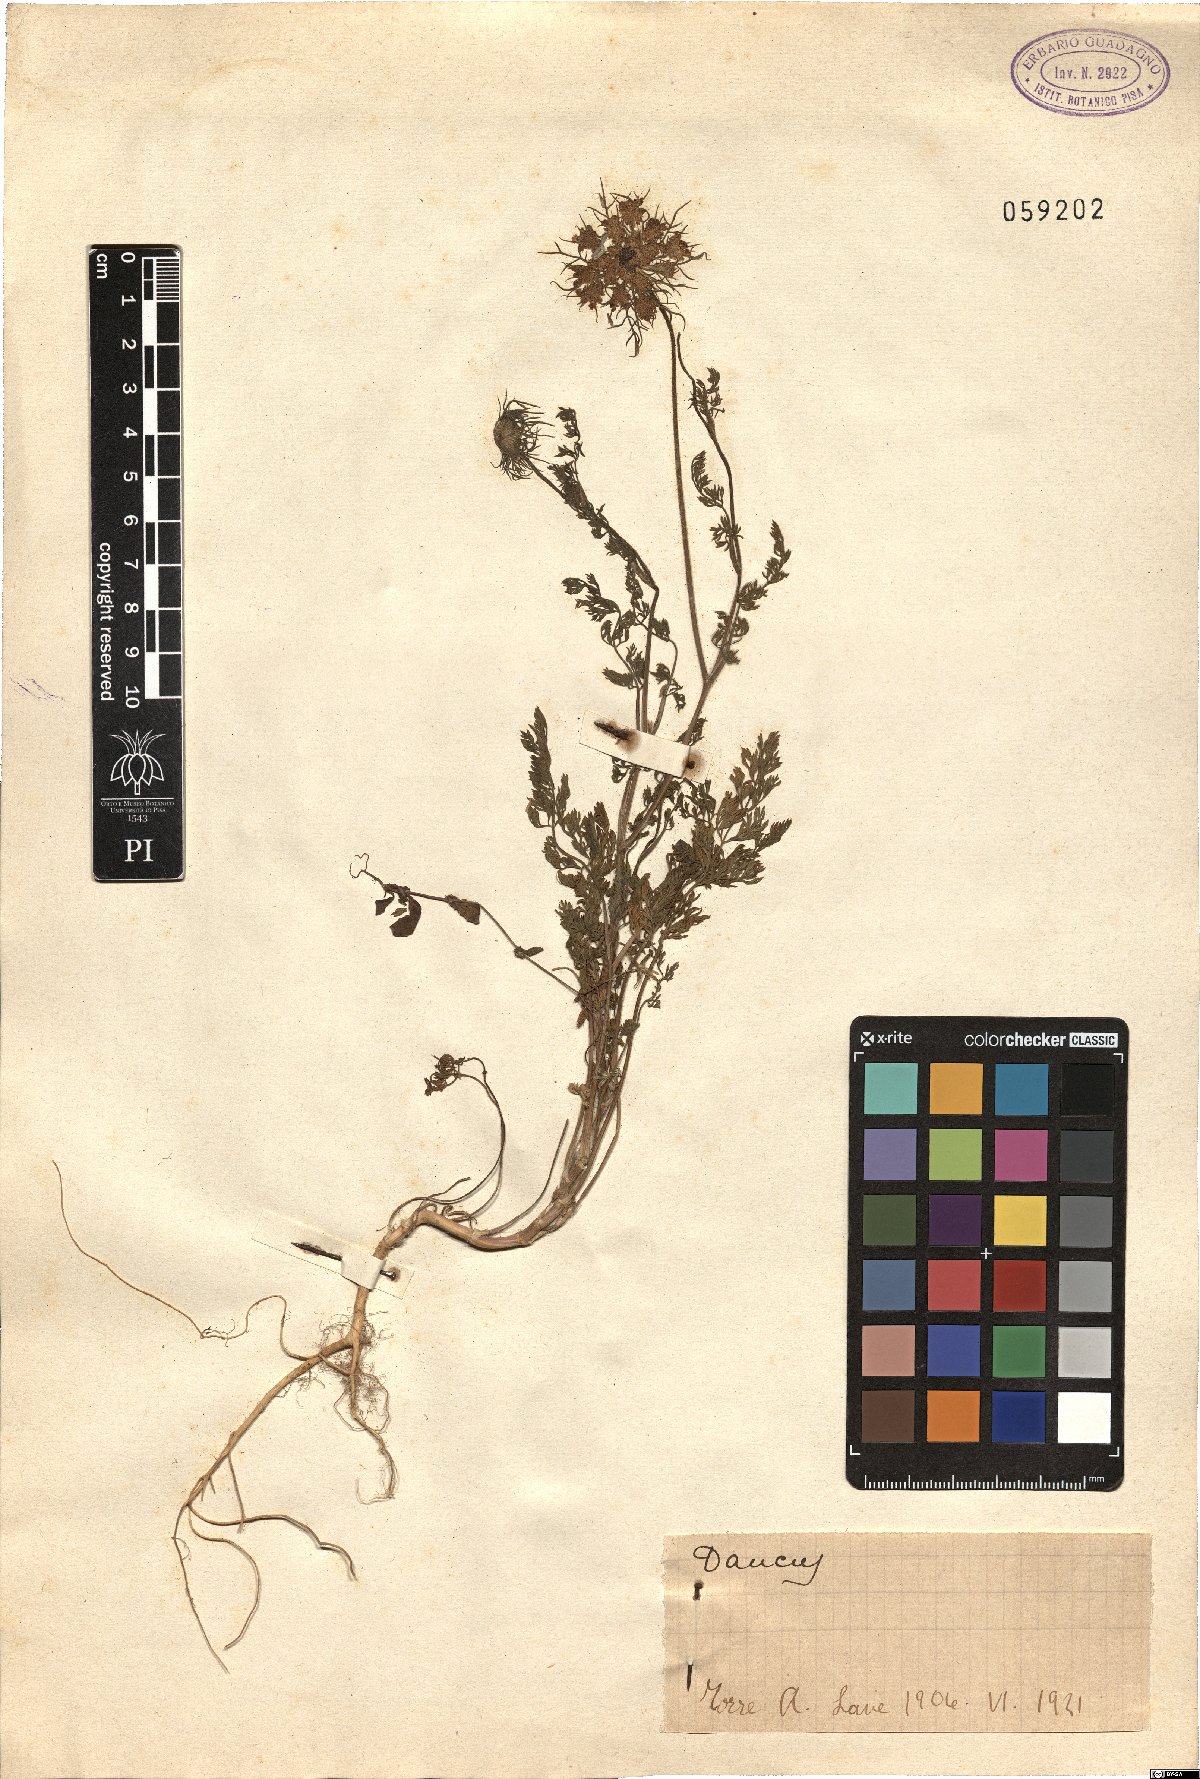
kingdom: Plantae
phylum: Tracheophyta
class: Magnoliopsida
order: Apiales
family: Apiaceae
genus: Daucus
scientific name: Daucus
